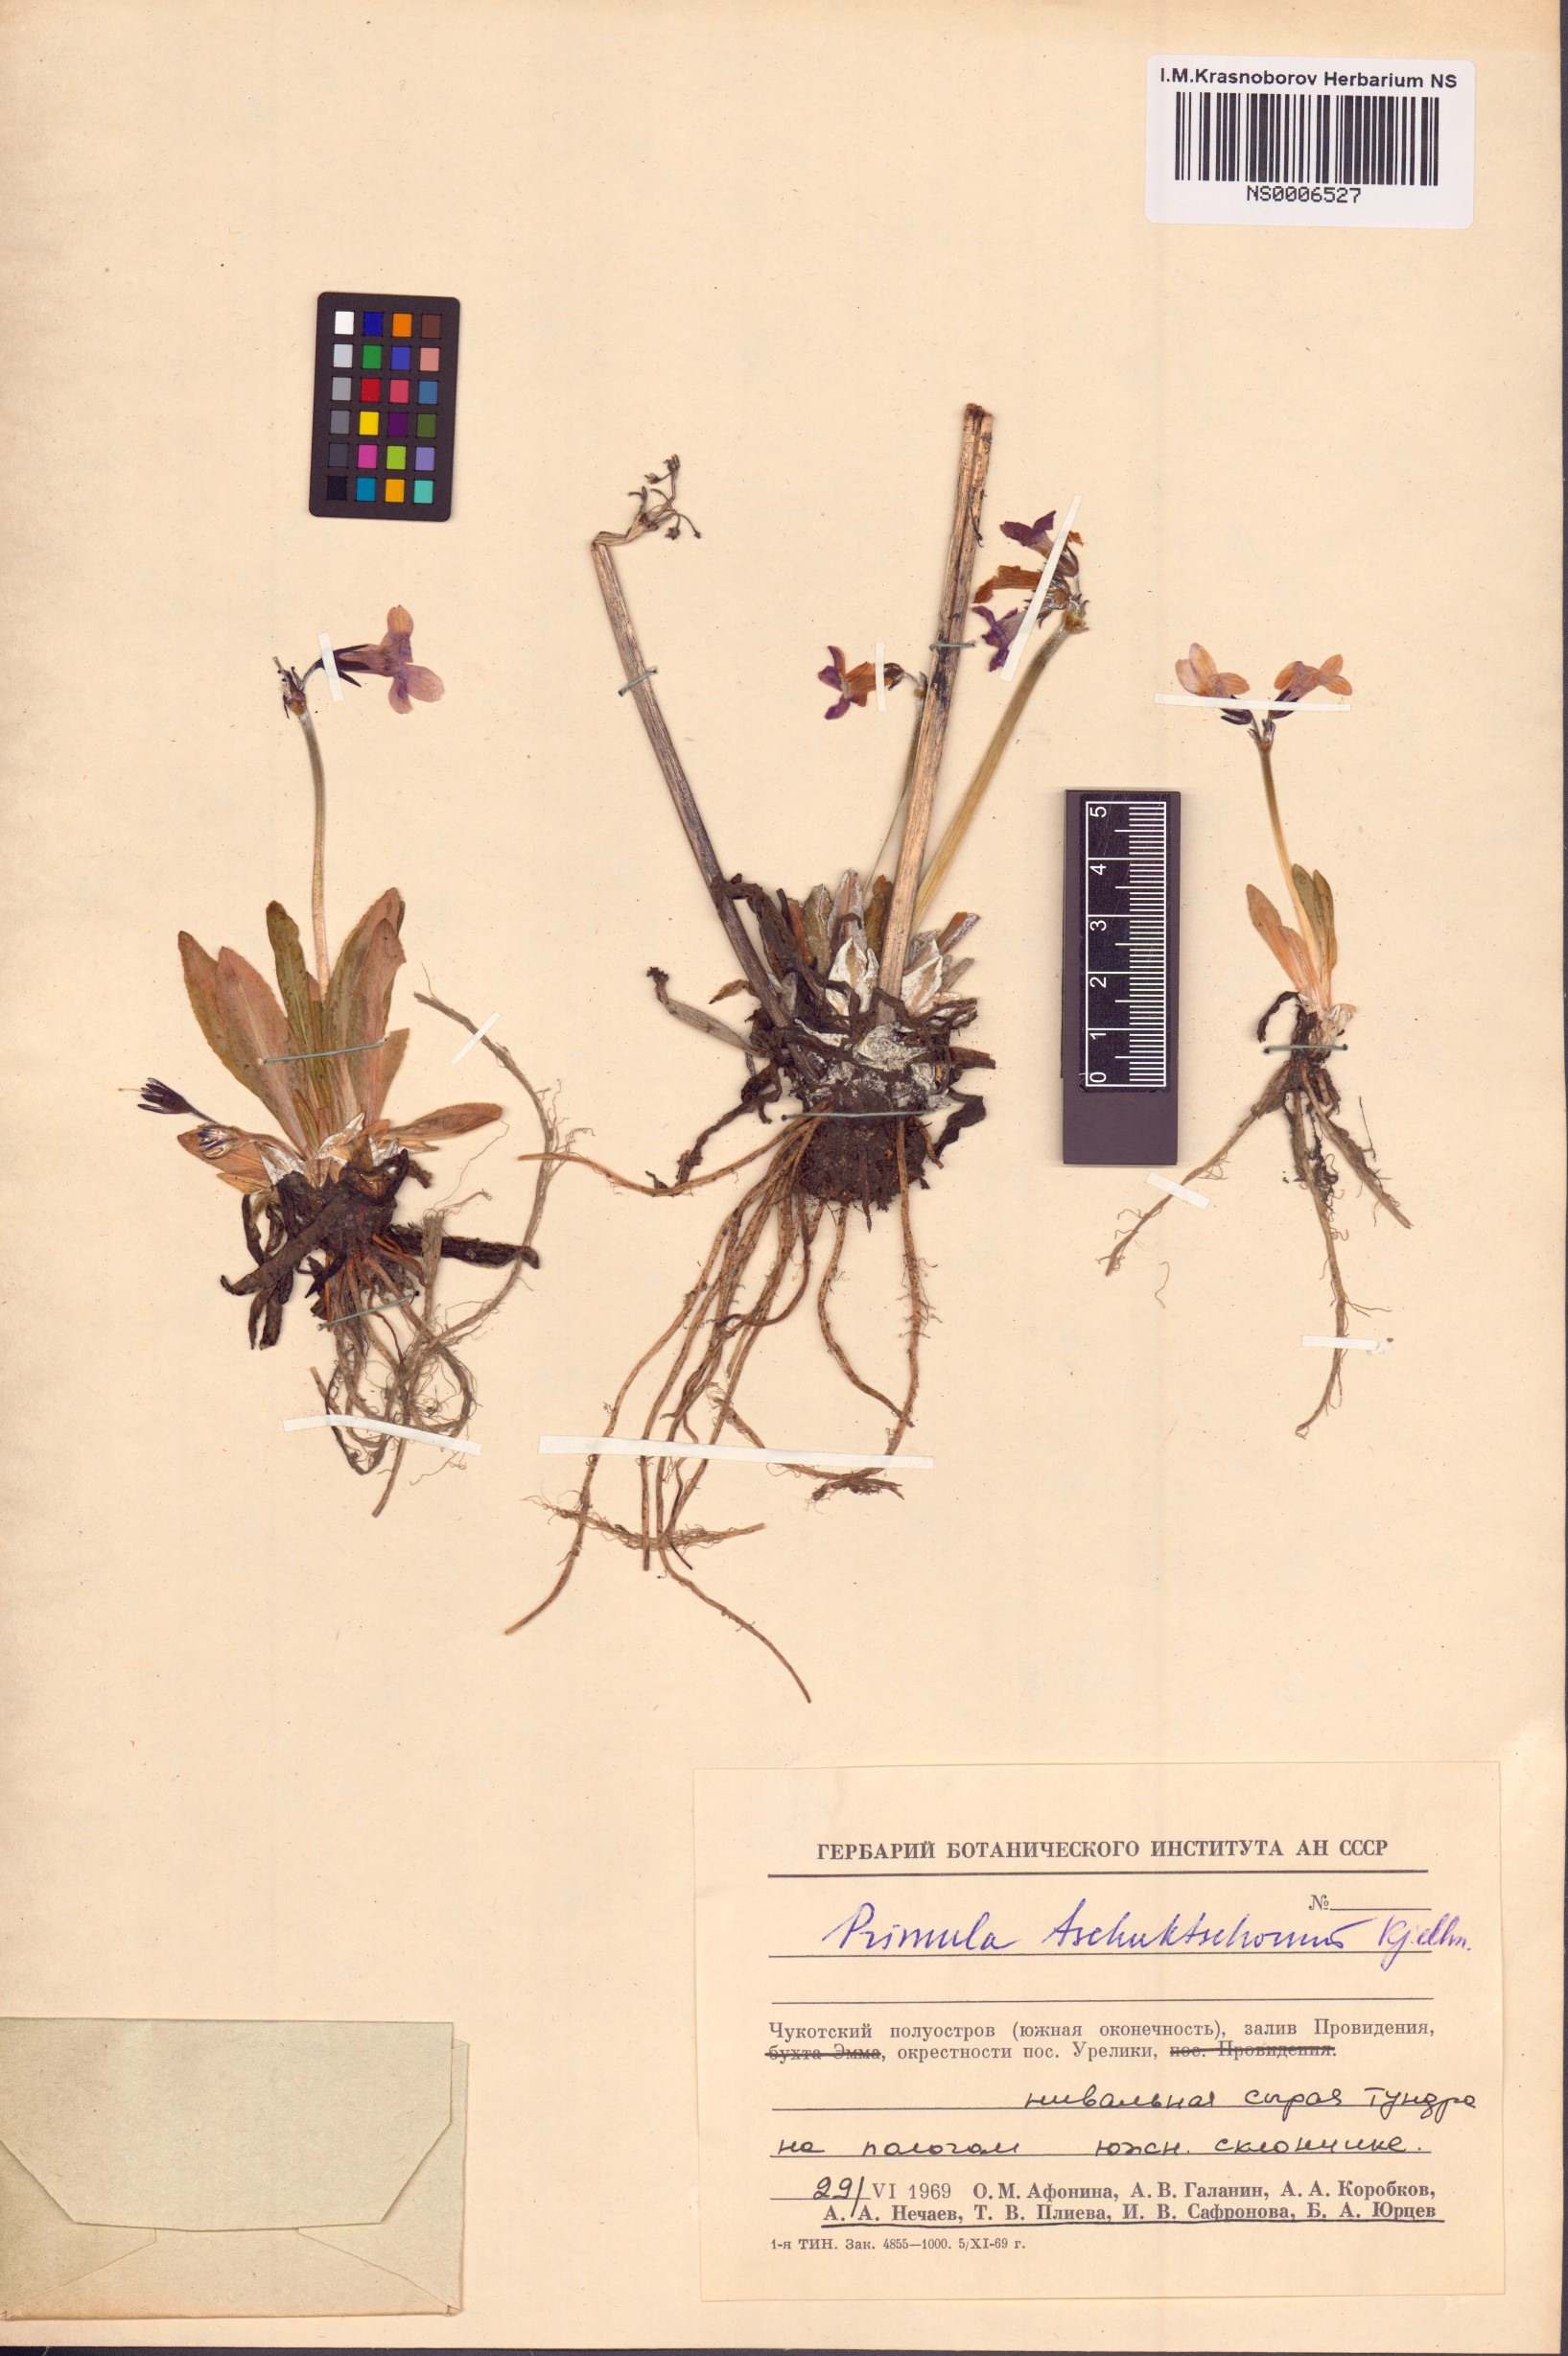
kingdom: Plantae
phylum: Tracheophyta
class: Magnoliopsida
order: Ericales
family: Primulaceae
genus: Primula
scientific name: Primula tschuktschorum
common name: Chukchi primrose
